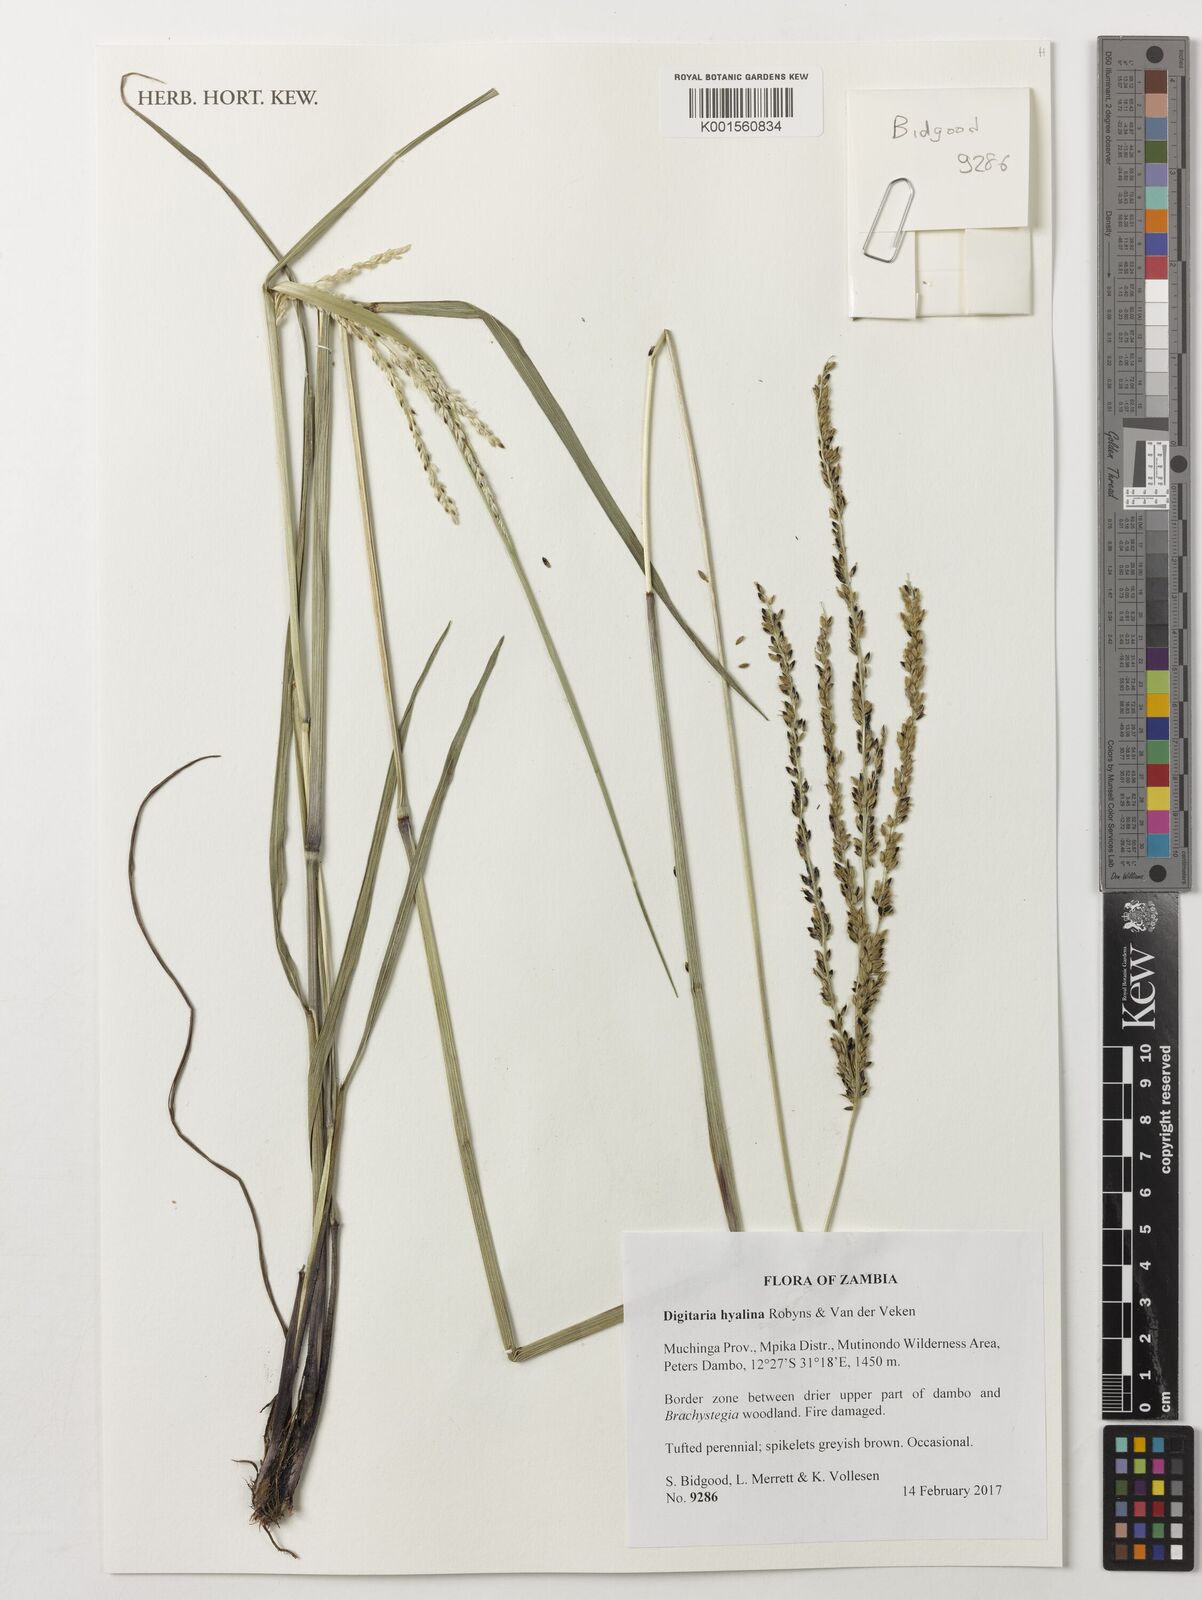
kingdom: Plantae
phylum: Tracheophyta
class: Liliopsida
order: Poales
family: Poaceae
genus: Digitaria
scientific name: Digitaria hyalina
